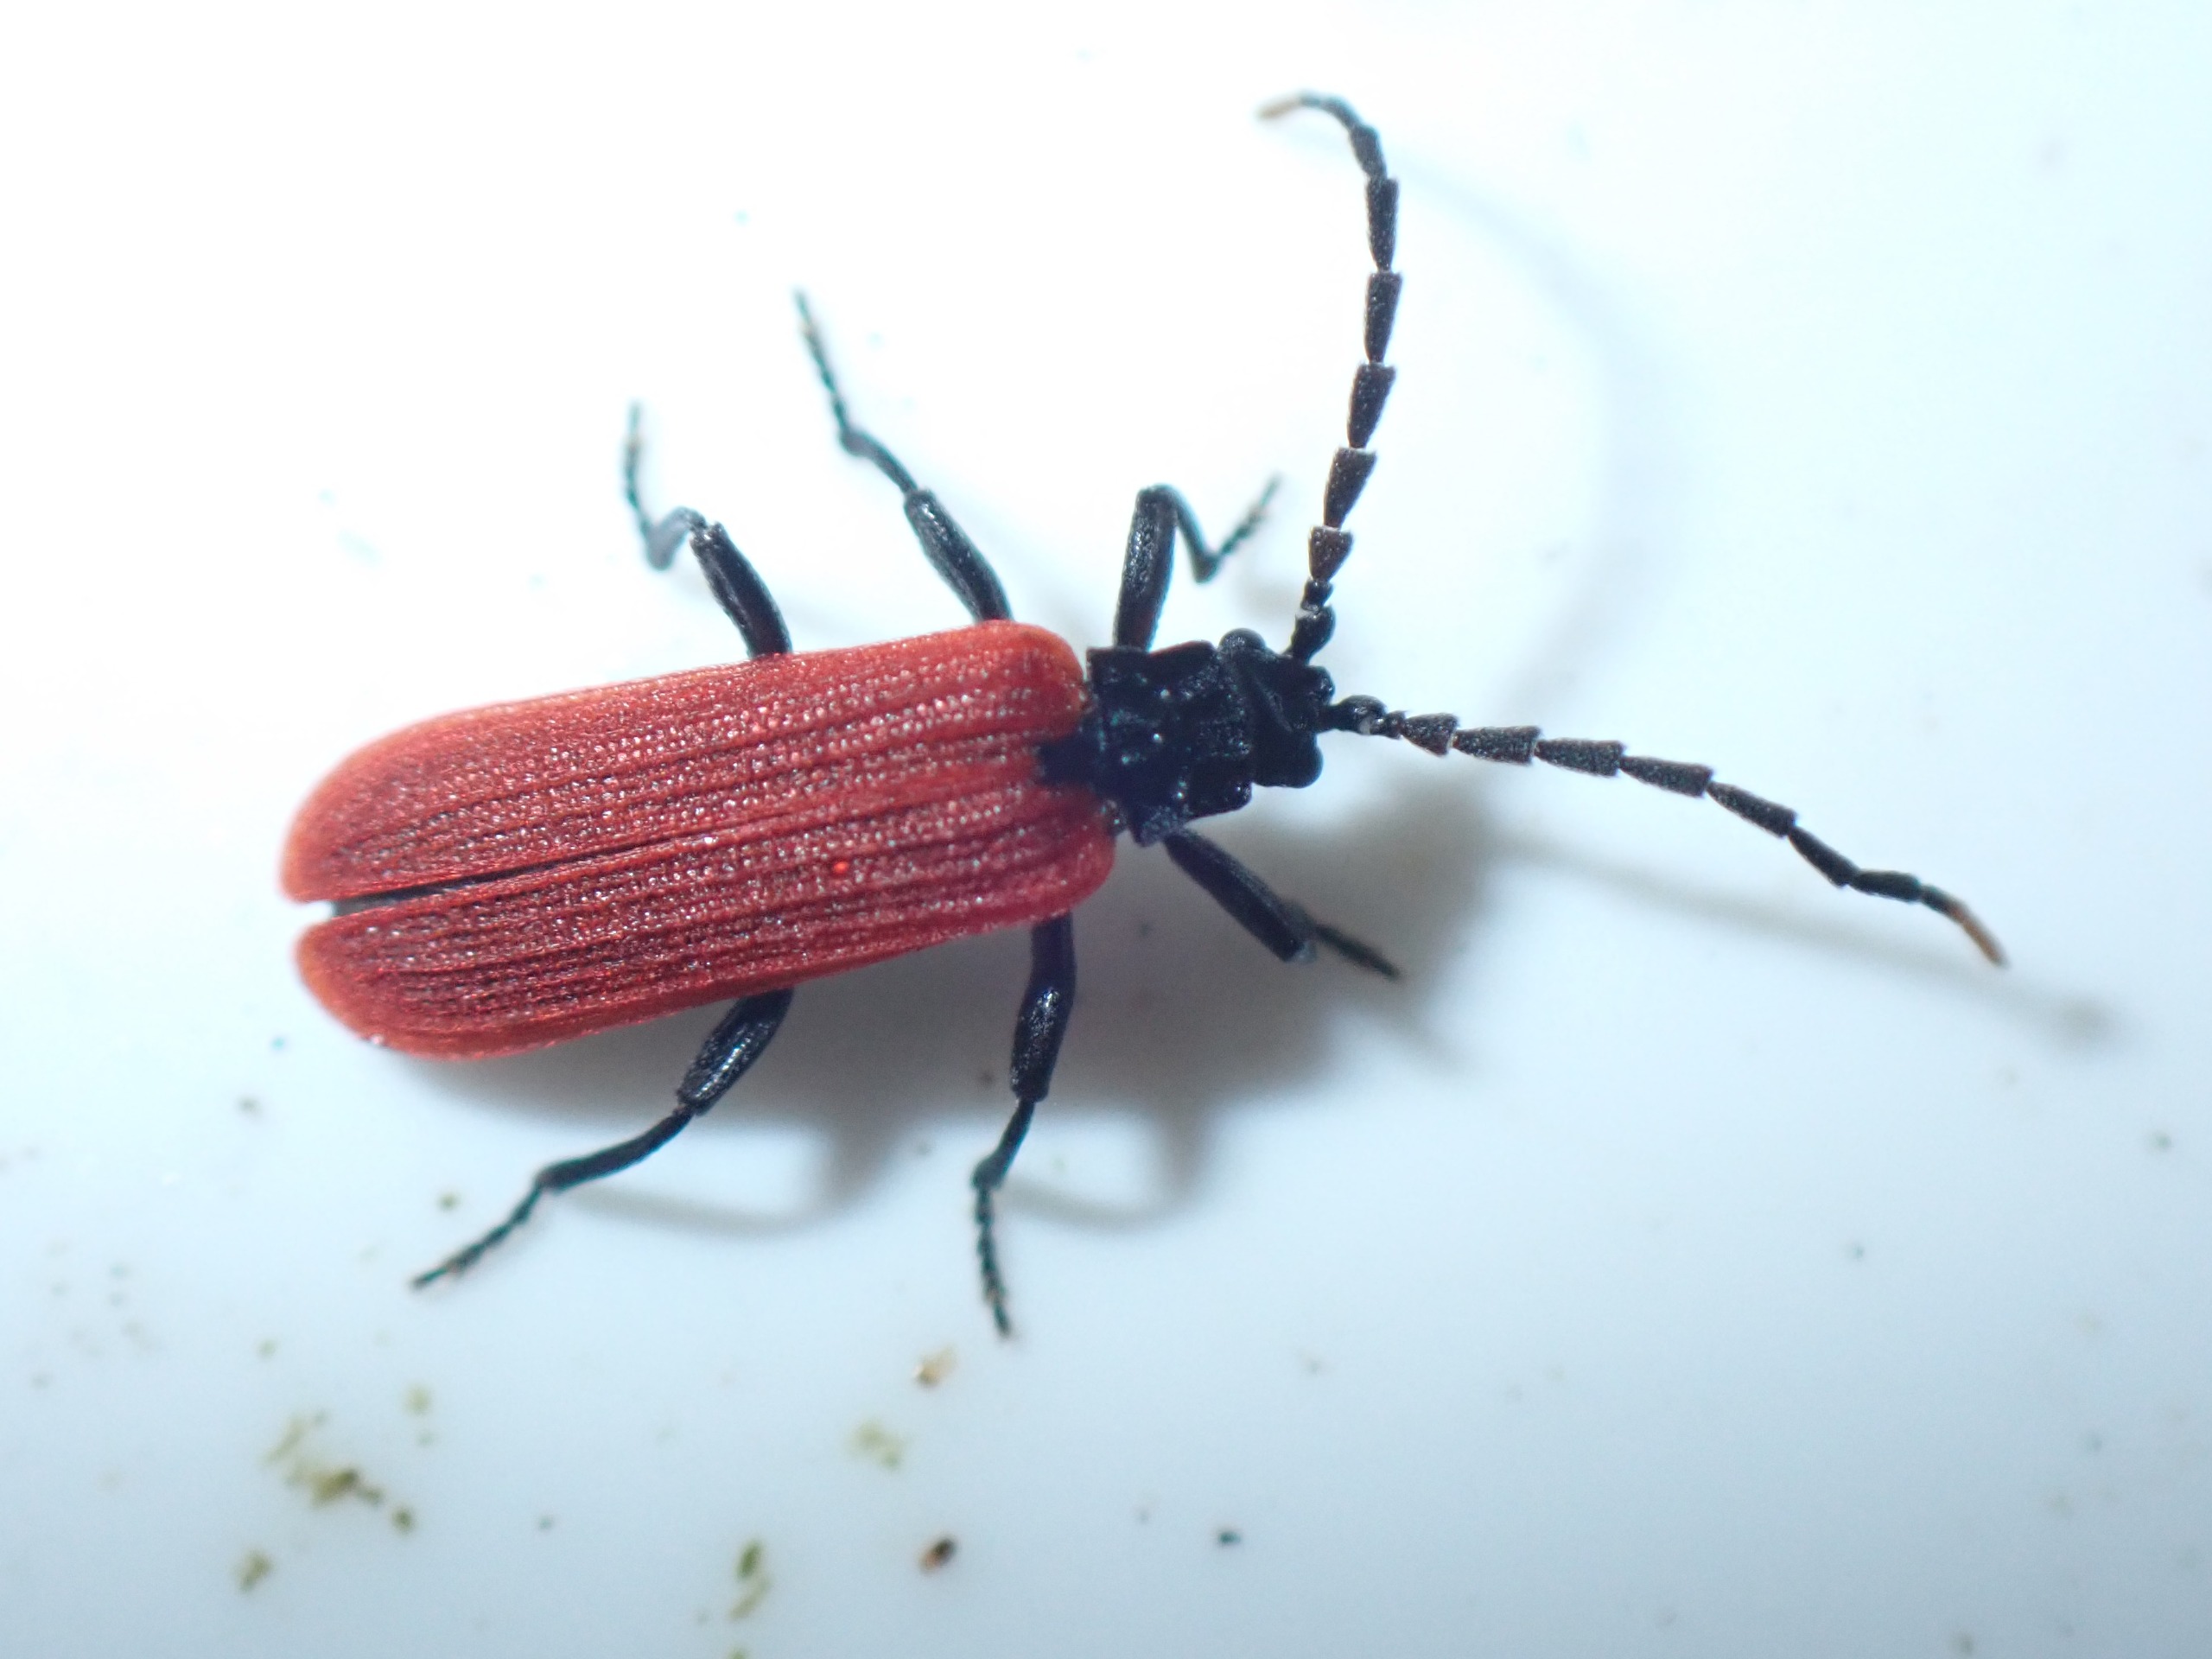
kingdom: Animalia
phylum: Arthropoda
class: Insecta
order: Coleoptera
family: Lycidae
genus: Platycis
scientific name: Platycis minutus
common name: Lille maskebille
